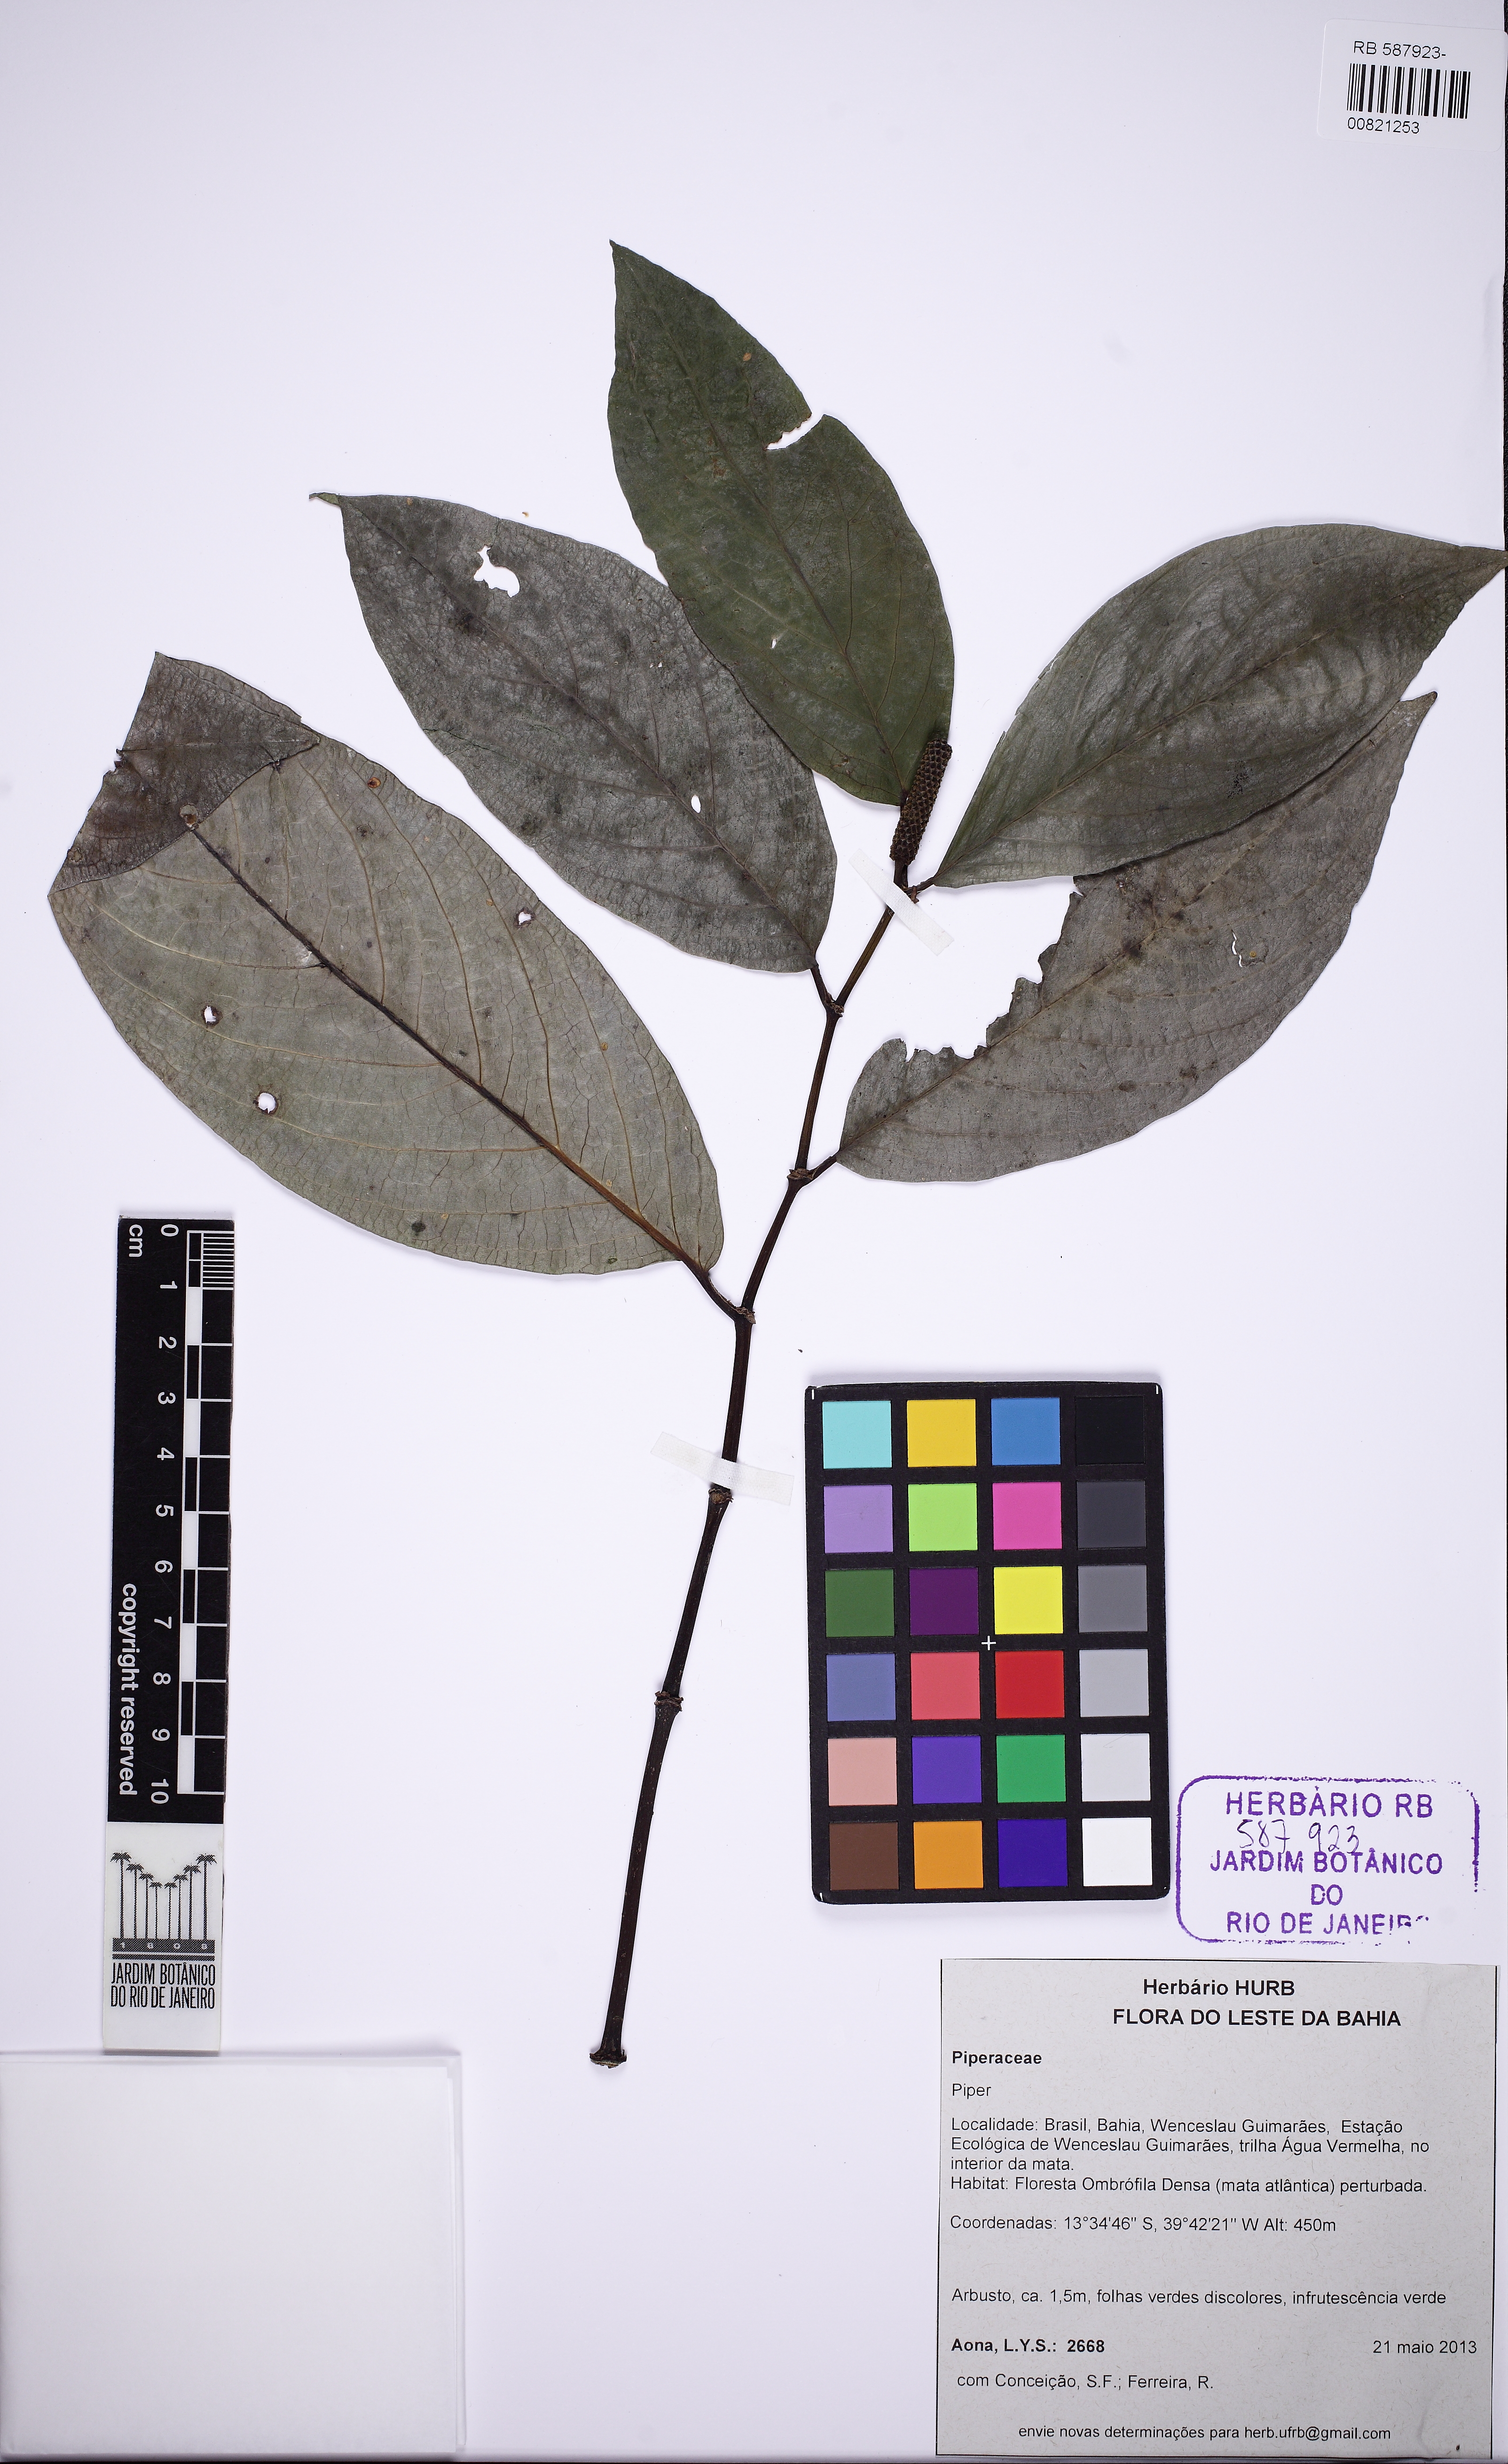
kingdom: Plantae
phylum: Tracheophyta
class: Magnoliopsida
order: Piperales
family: Piperaceae
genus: Piper
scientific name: Piper vicosanum
